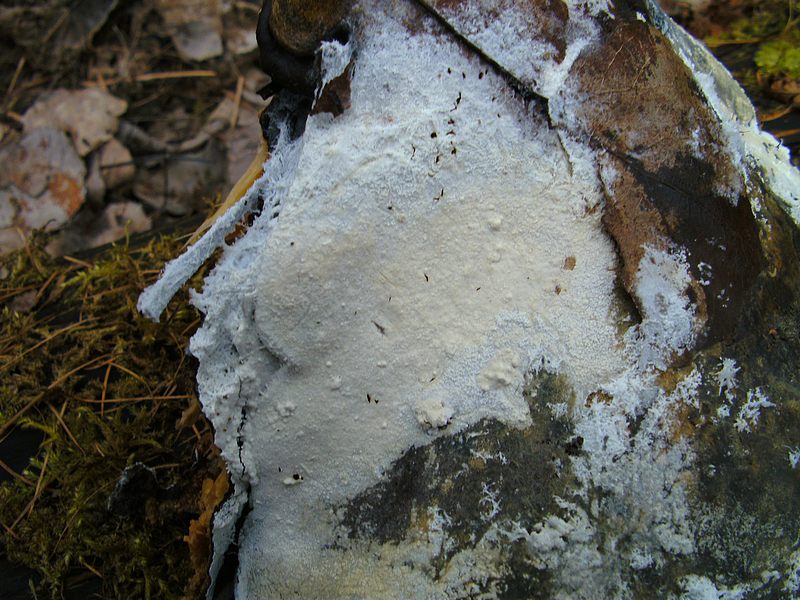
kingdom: Fungi
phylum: Basidiomycota
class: Agaricomycetes
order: Cantharellales
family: Hydnaceae
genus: Sistotrema
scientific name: Sistotrema sernanderi
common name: sur kroneskorpe
